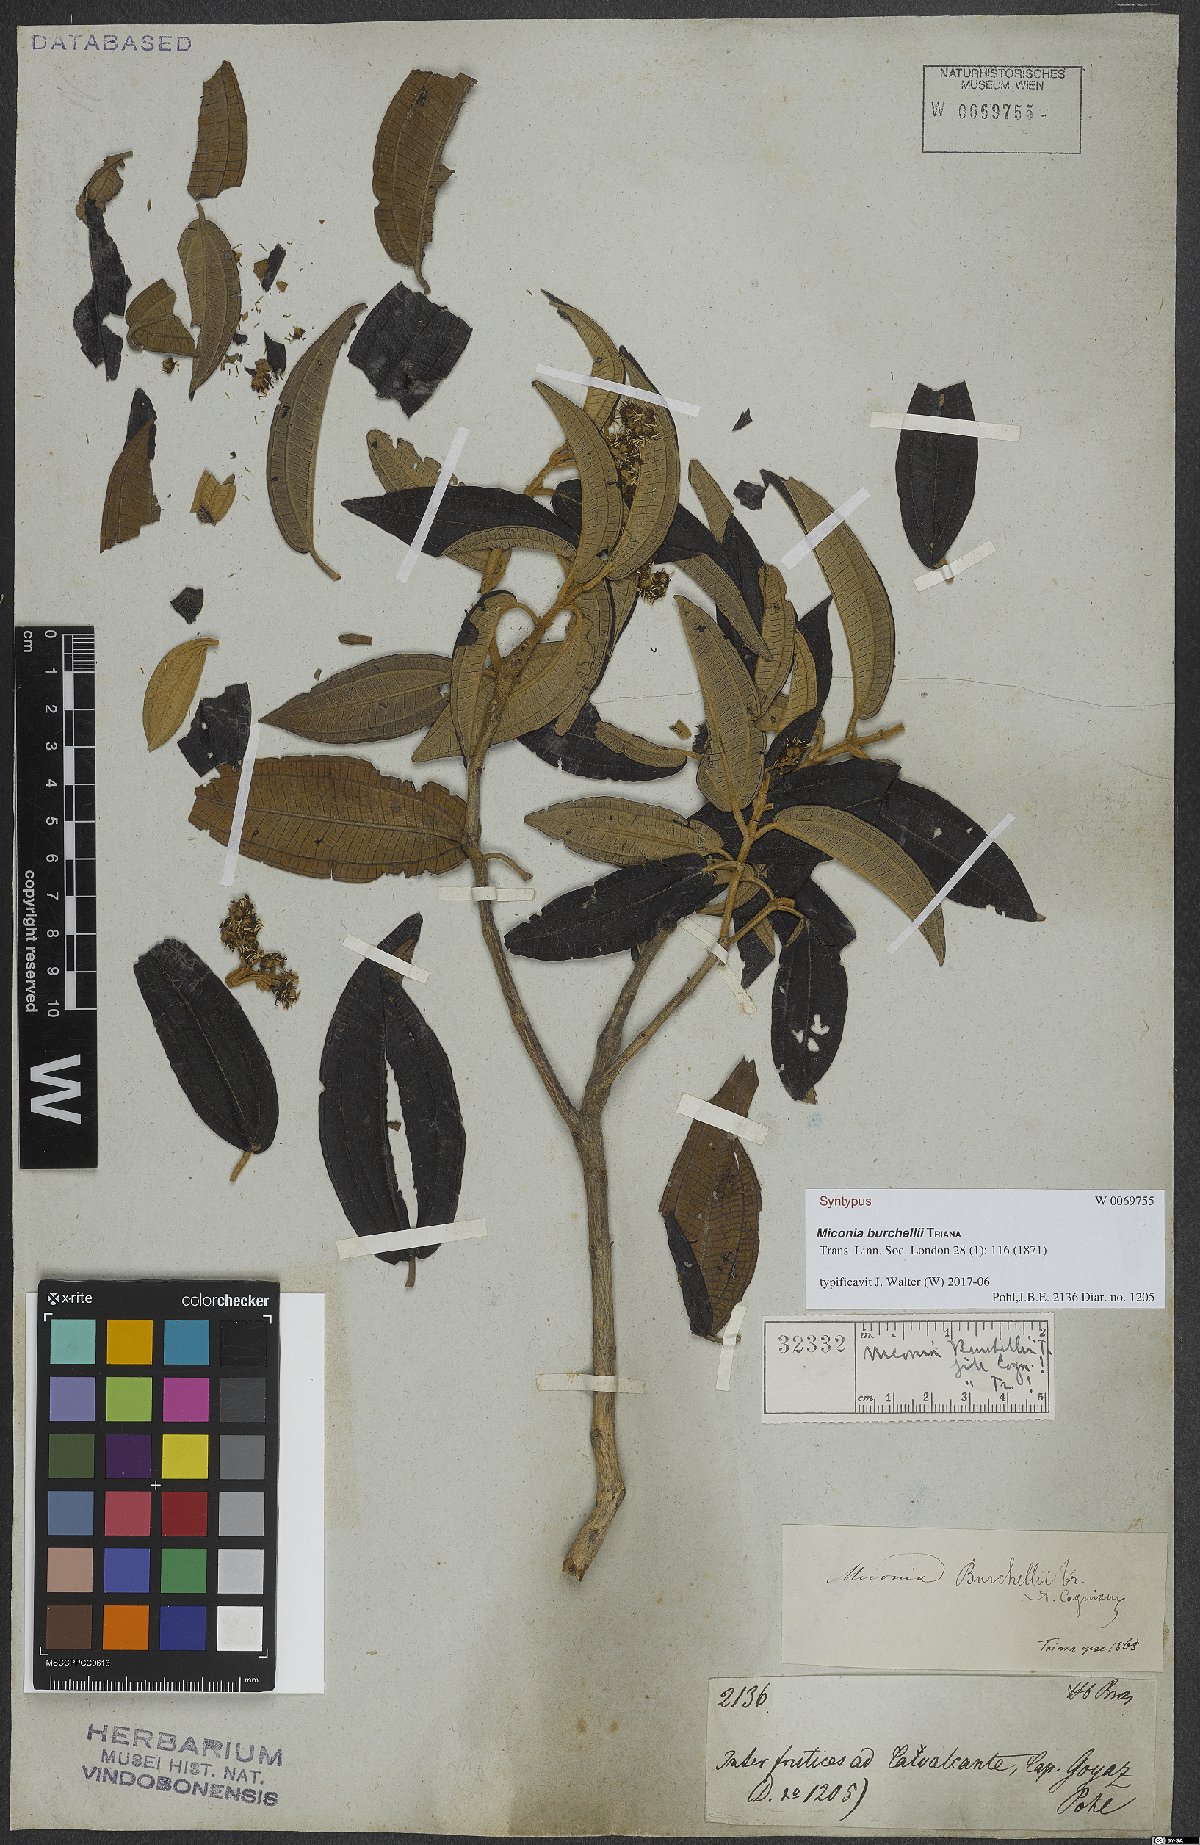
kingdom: Plantae
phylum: Tracheophyta
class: Magnoliopsida
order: Myrtales
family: Melastomataceae
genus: Miconia
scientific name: Miconia burchellii
